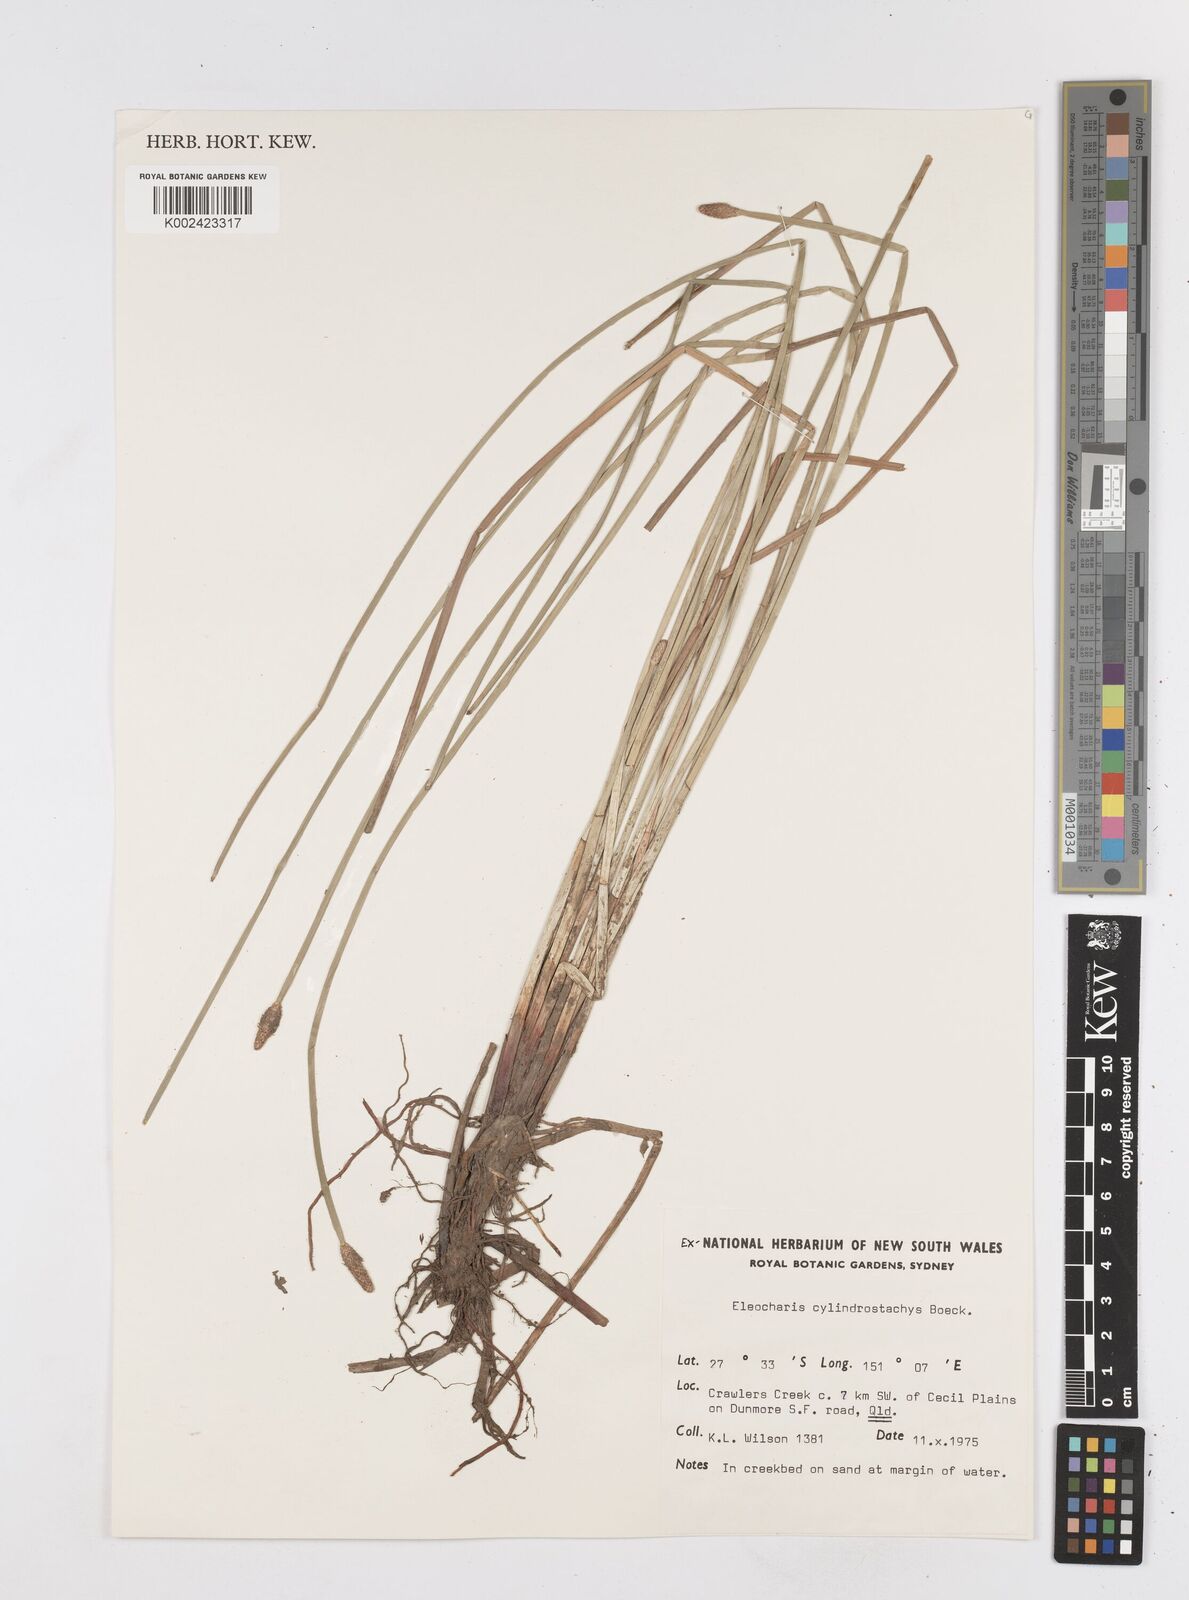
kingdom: Plantae
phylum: Tracheophyta
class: Liliopsida
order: Poales
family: Cyperaceae
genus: Eleocharis
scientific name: Eleocharis cylindrostachys
